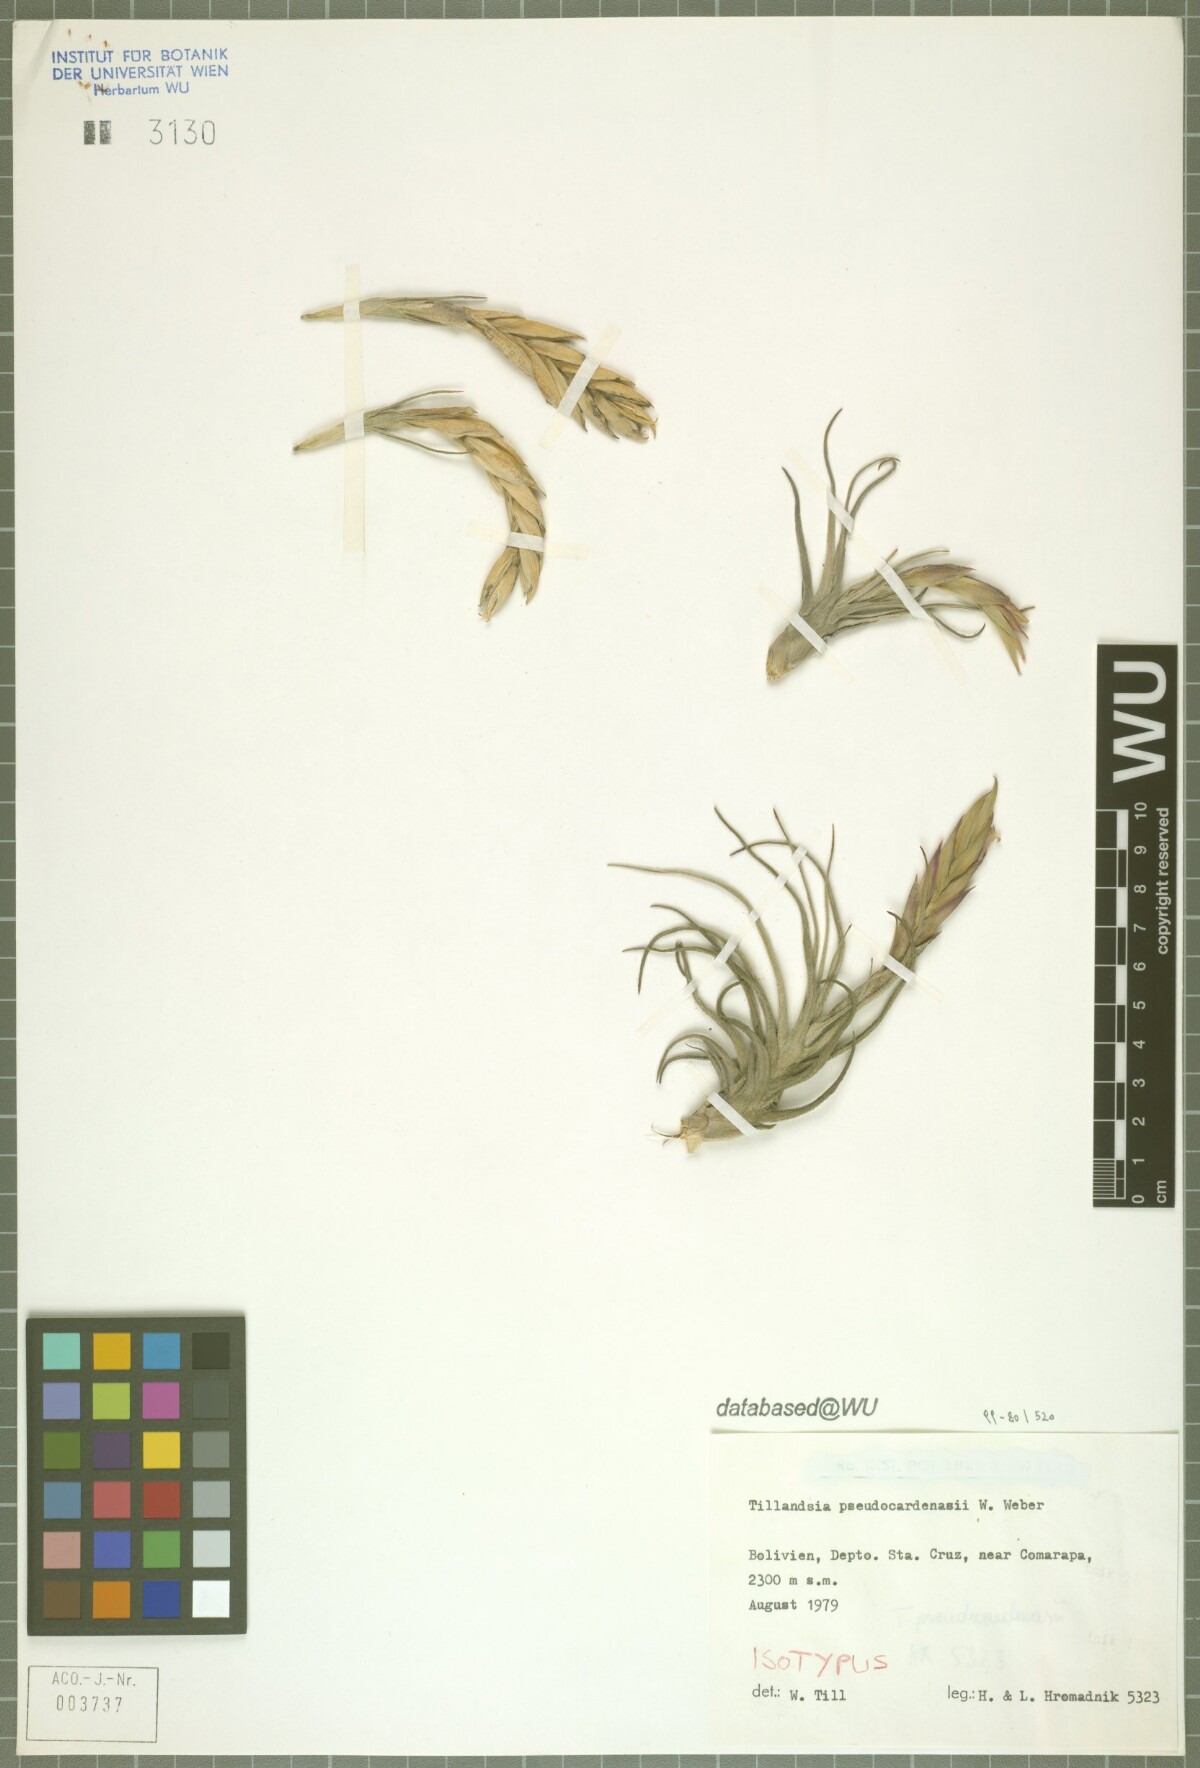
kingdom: Plantae
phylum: Tracheophyta
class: Liliopsida
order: Poales
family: Bromeliaceae
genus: Tillandsia
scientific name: Tillandsia pseudocardenasii
